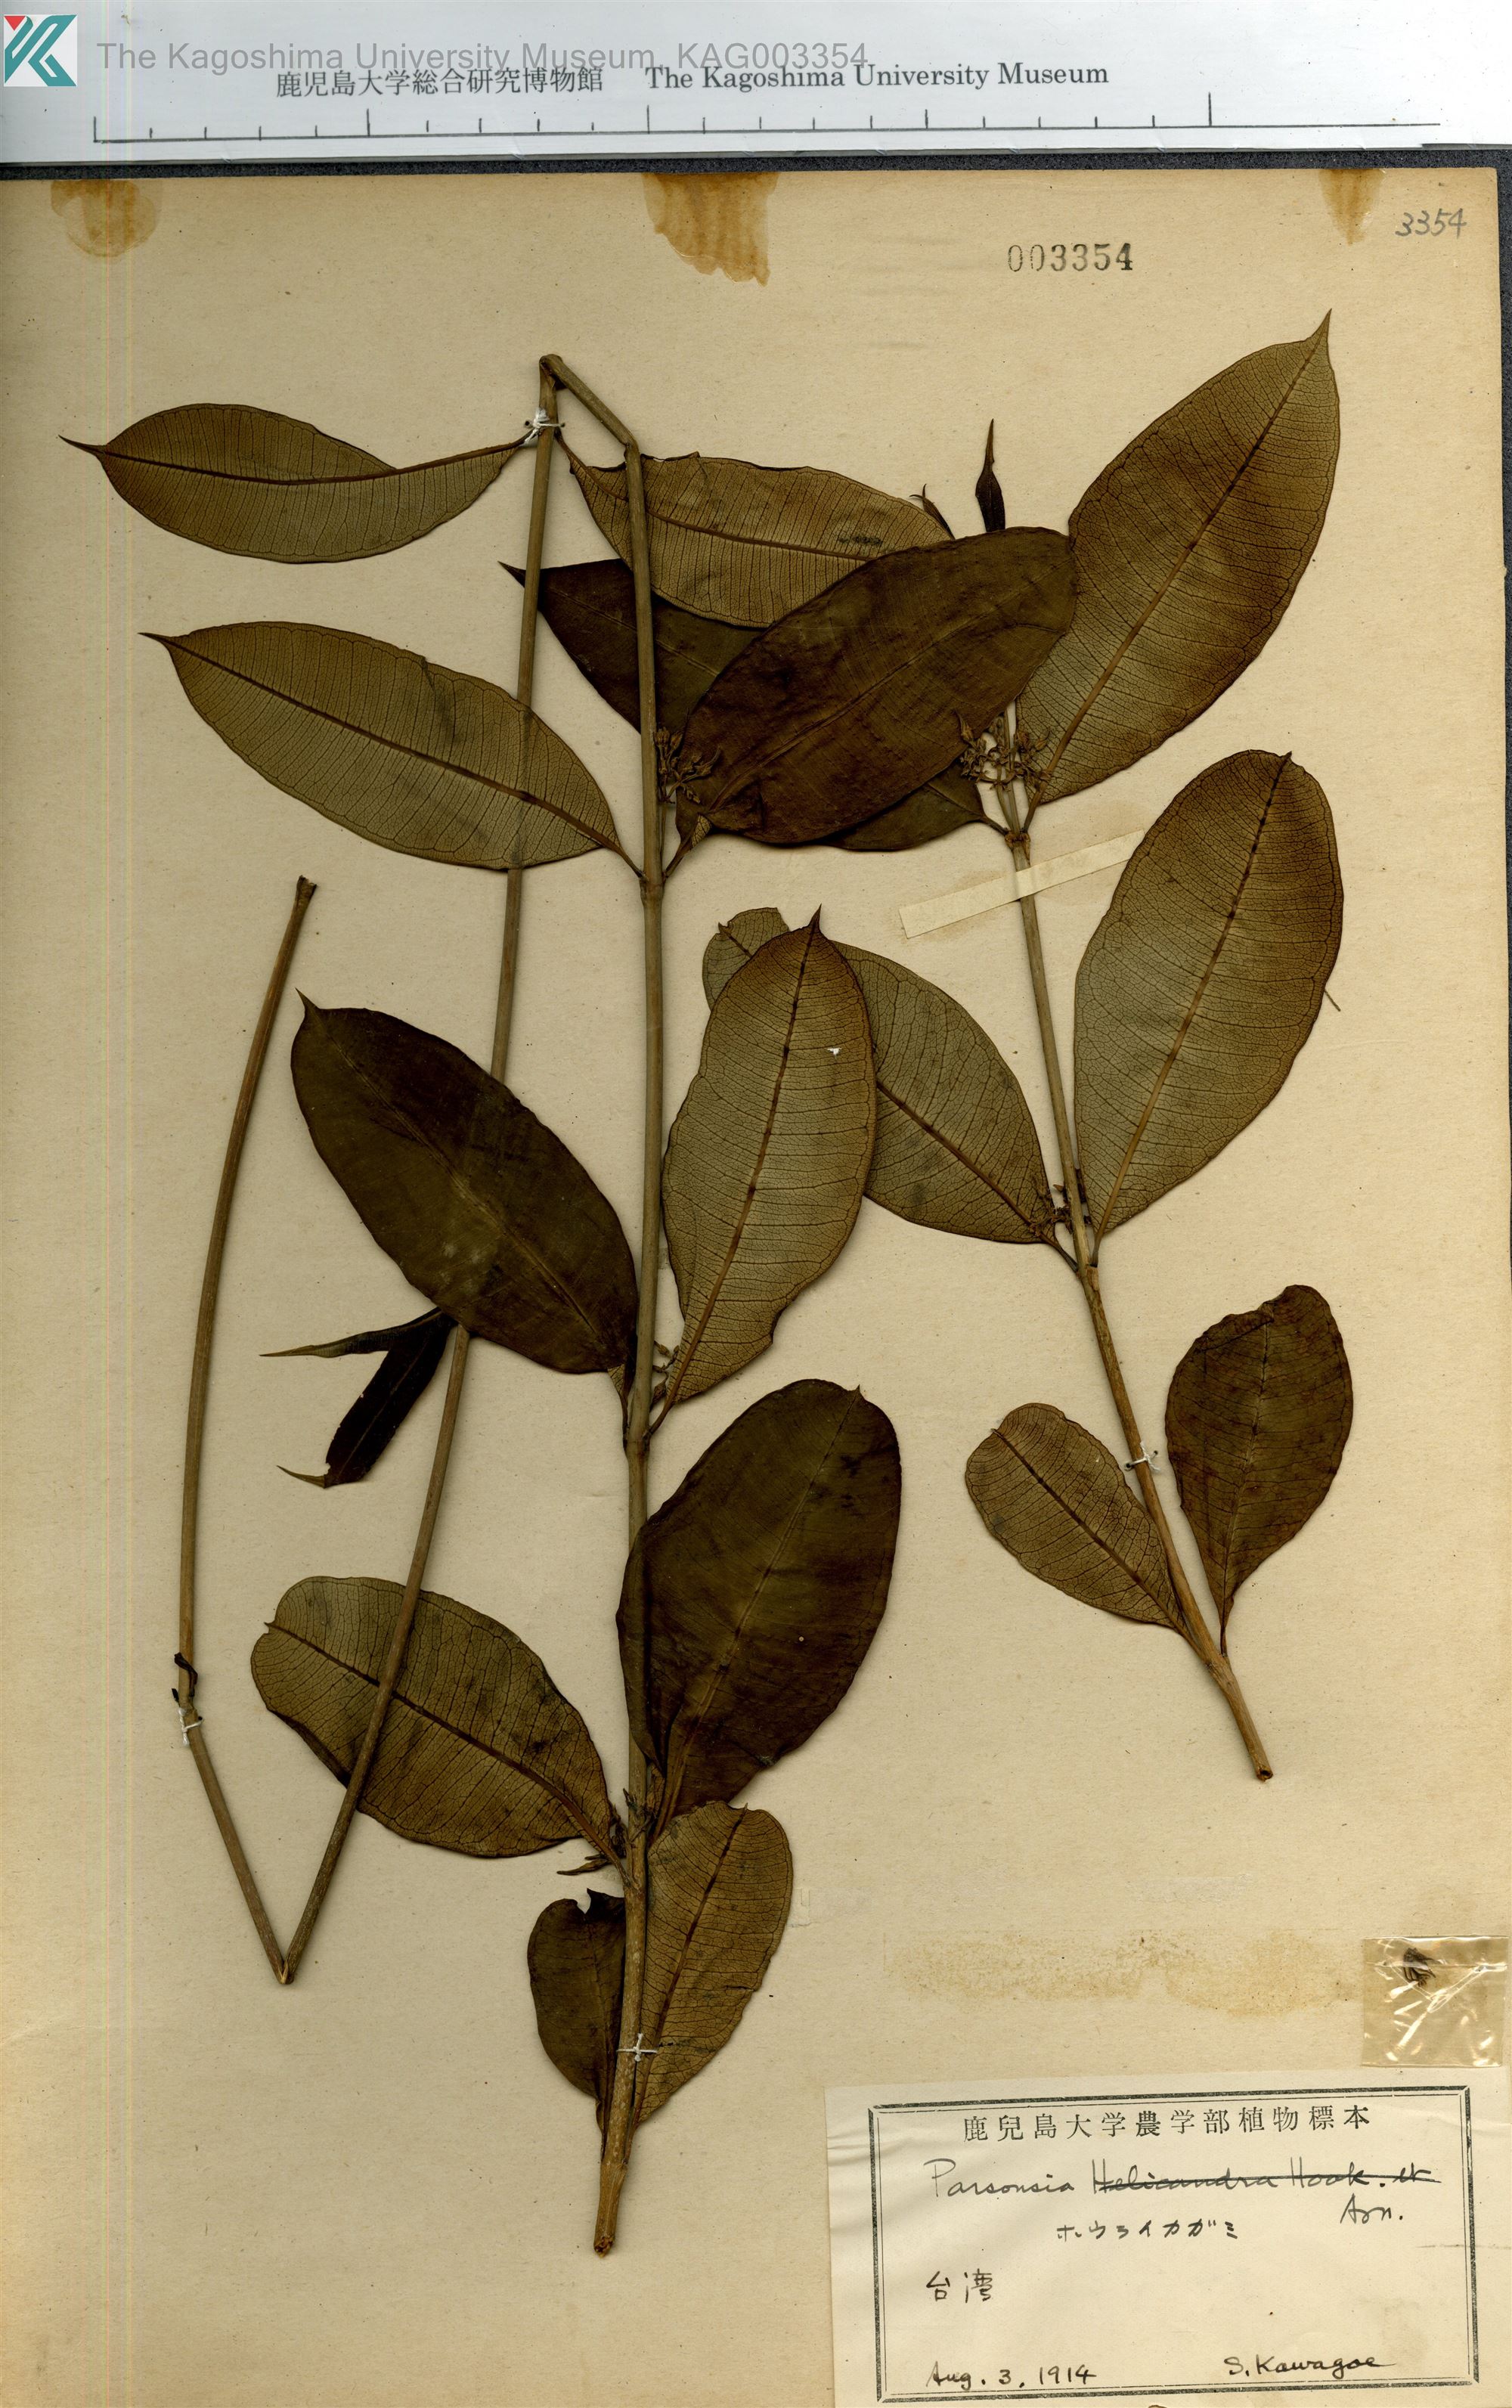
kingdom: Plantae
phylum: Tracheophyta
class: Magnoliopsida
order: Gentianales
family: Apocynaceae
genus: Parsonsia
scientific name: Parsonsia
